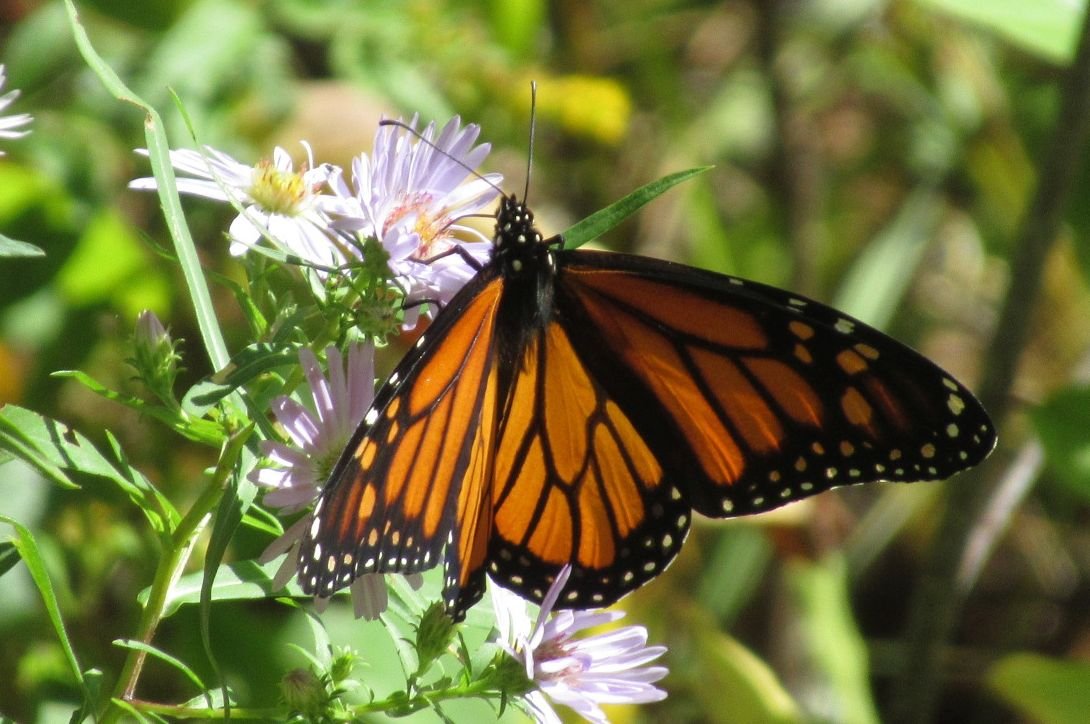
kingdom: Animalia
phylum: Arthropoda
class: Insecta
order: Lepidoptera
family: Nymphalidae
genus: Danaus
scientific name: Danaus plexippus
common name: Monarch
